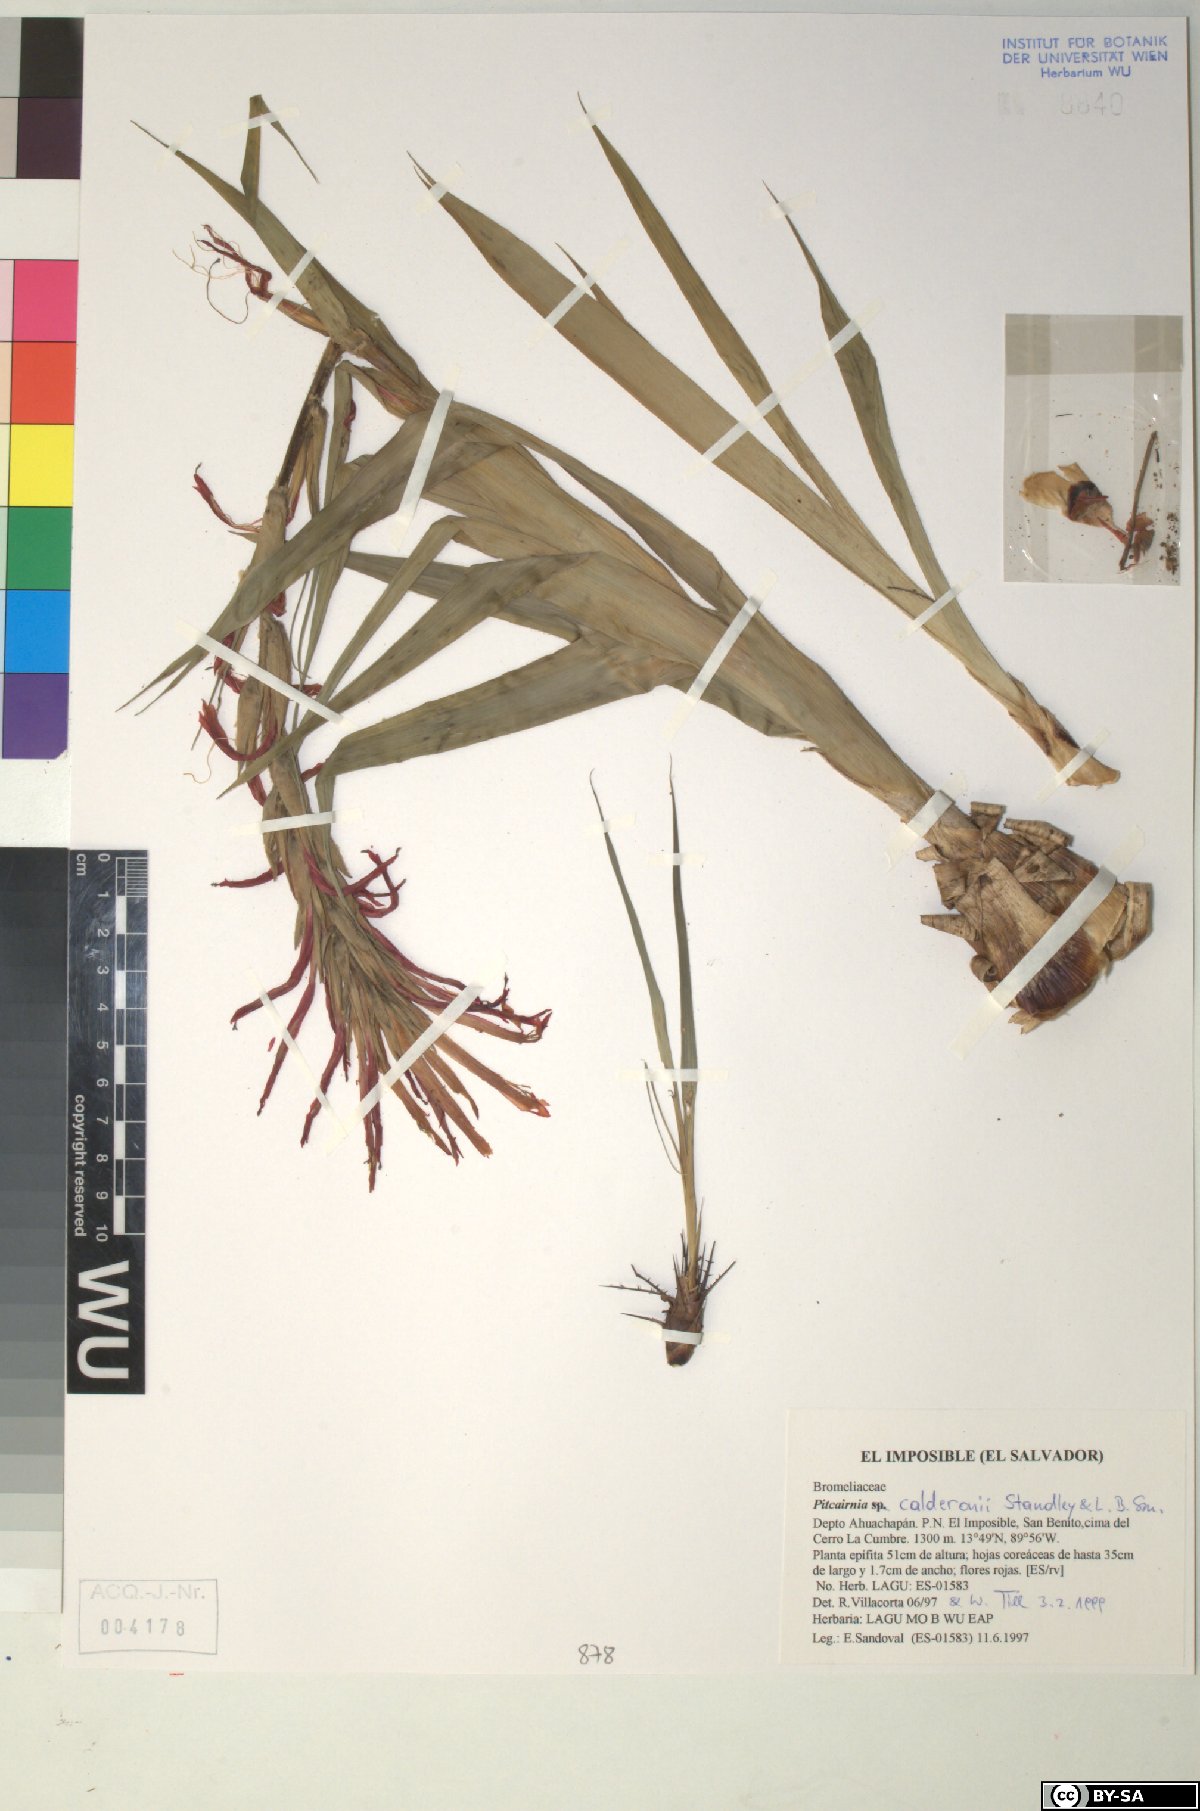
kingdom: Plantae
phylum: Tracheophyta
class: Liliopsida
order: Poales
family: Bromeliaceae
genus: Pitcairnia
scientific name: Pitcairnia calderonii
